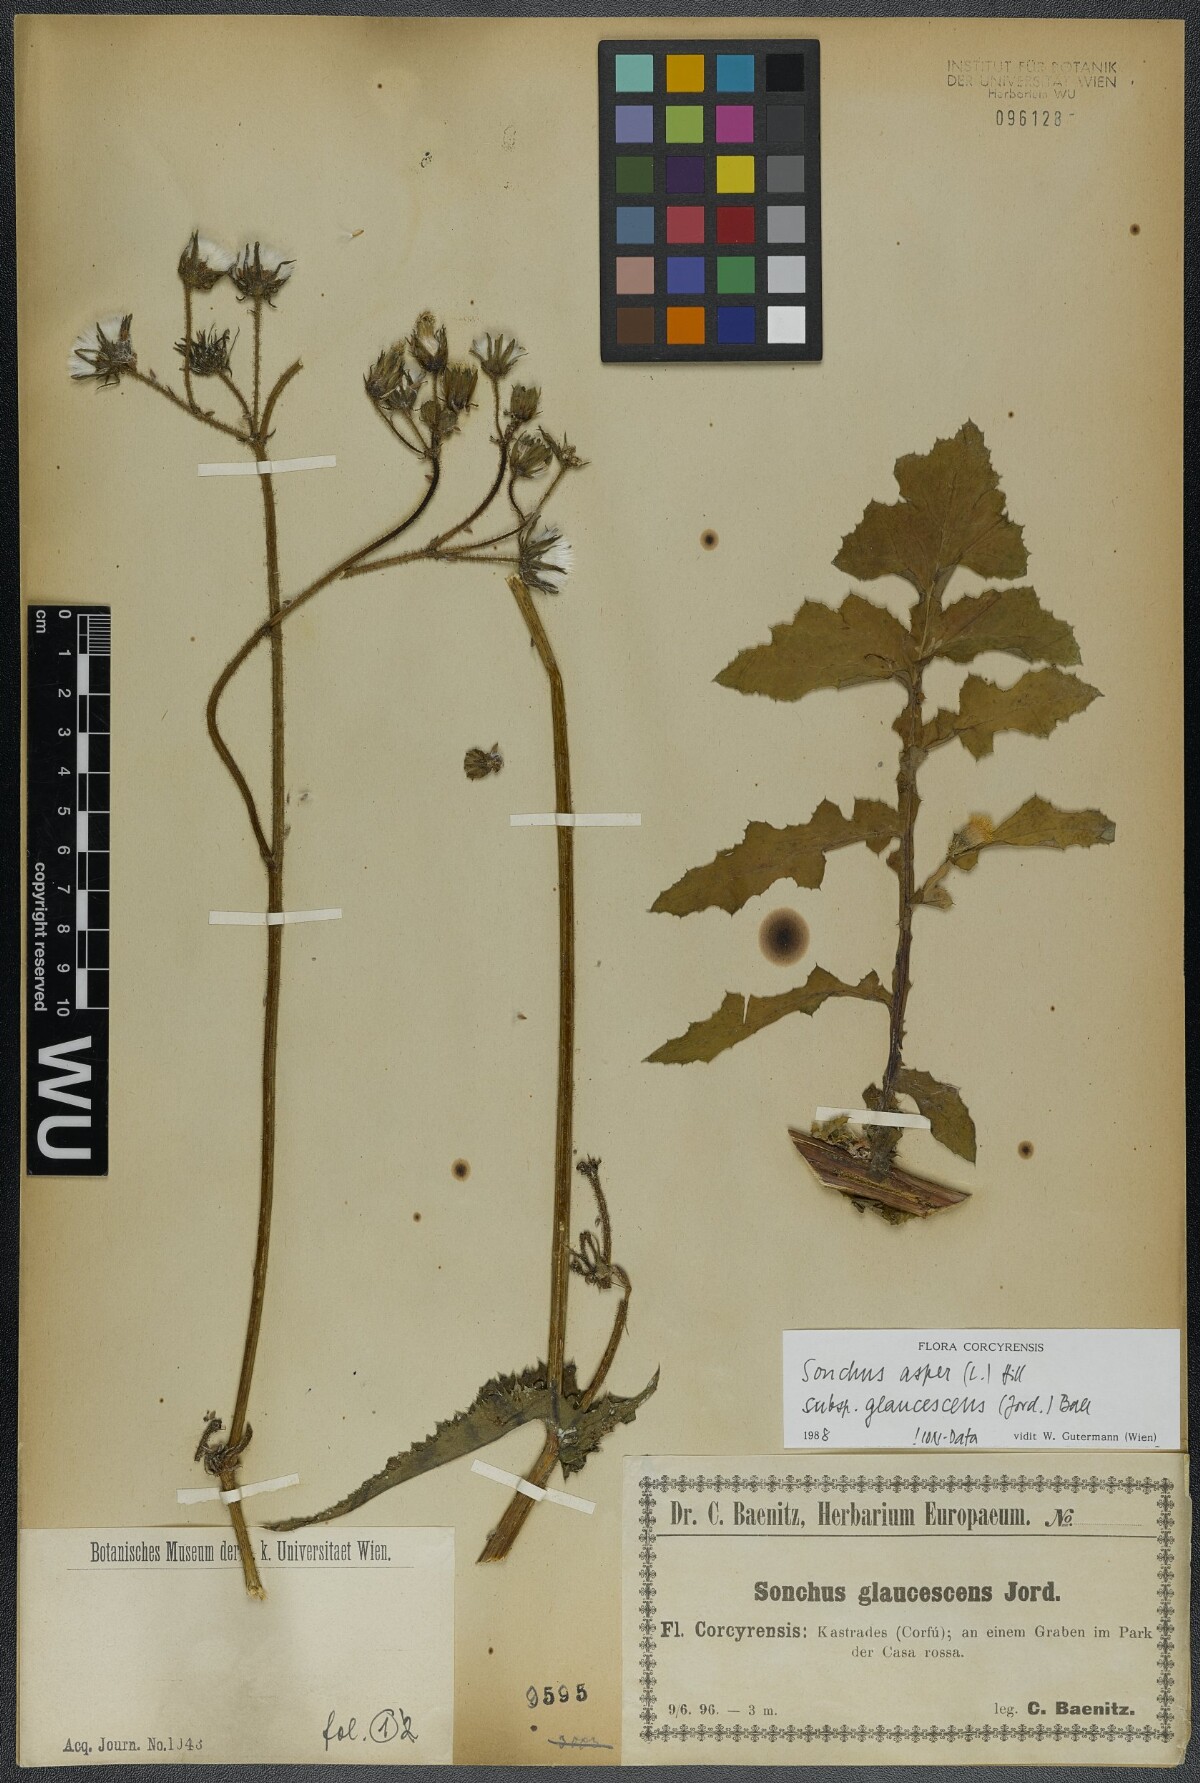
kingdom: Plantae
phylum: Tracheophyta
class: Magnoliopsida
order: Asterales
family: Asteraceae
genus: Sonchus
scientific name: Sonchus asper
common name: Prickly sow-thistle
